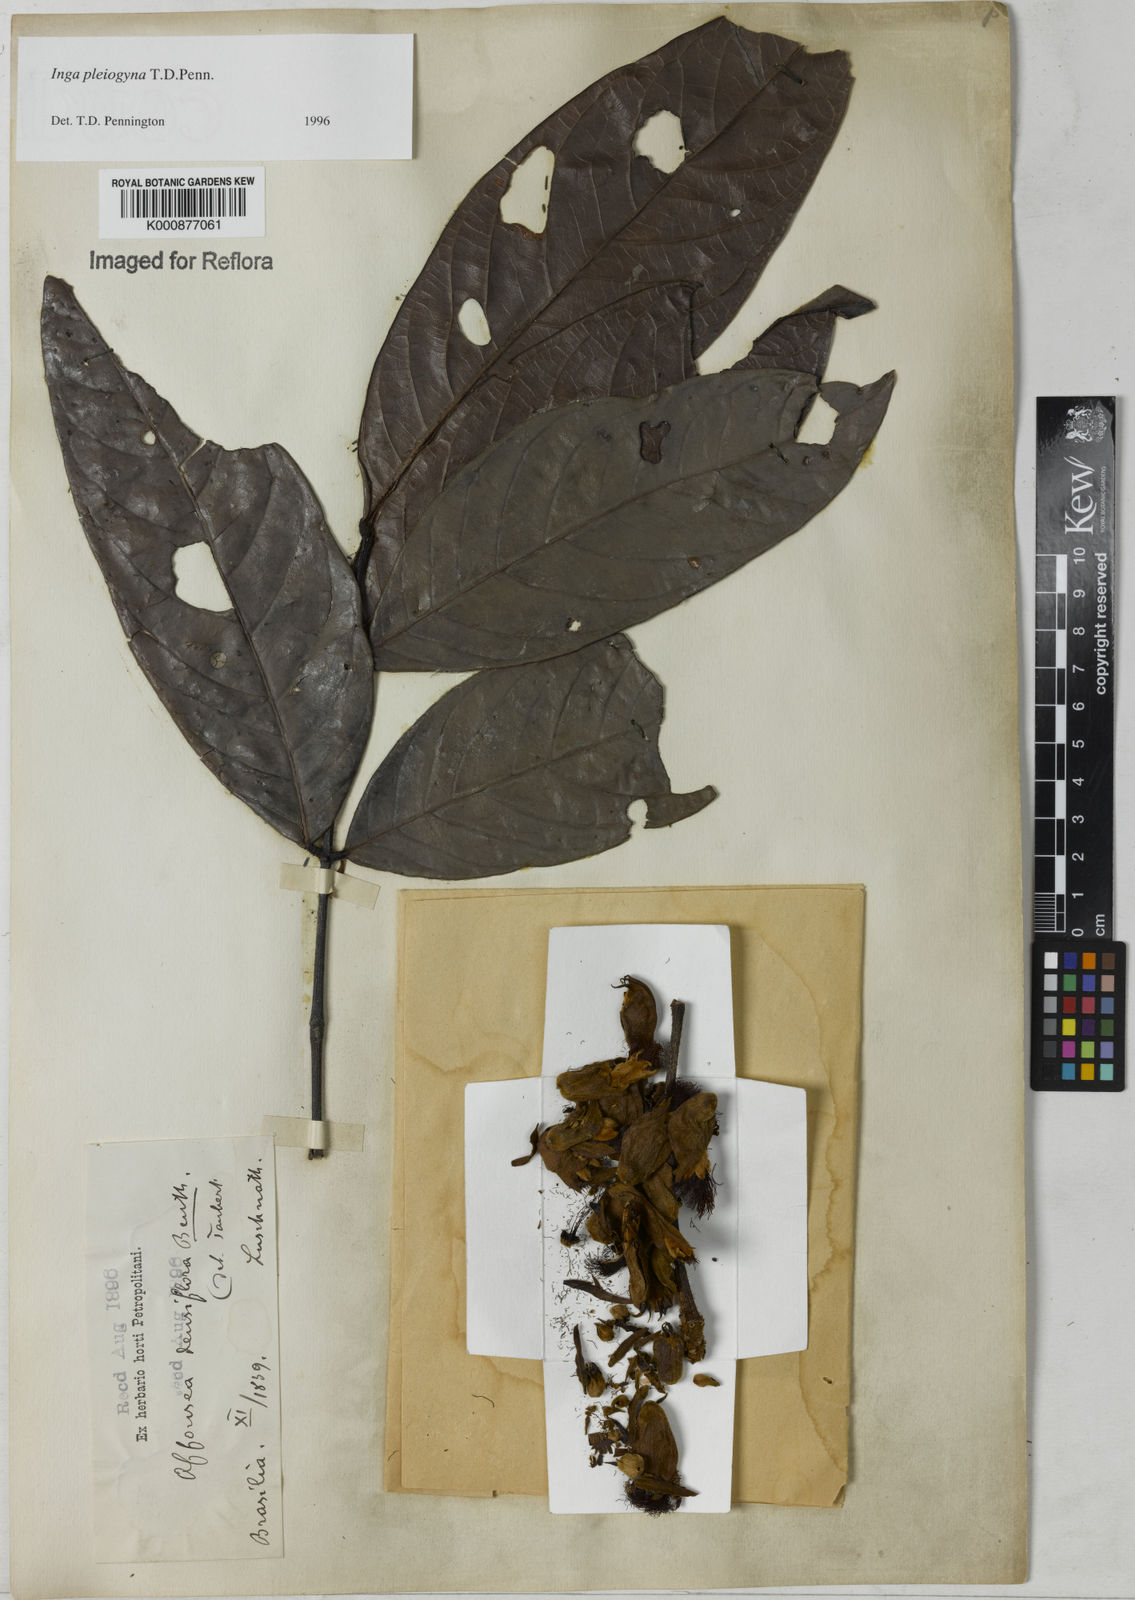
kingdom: Plantae
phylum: Tracheophyta
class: Magnoliopsida
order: Fabales
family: Fabaceae
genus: Inga
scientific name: Inga pleiogyna
